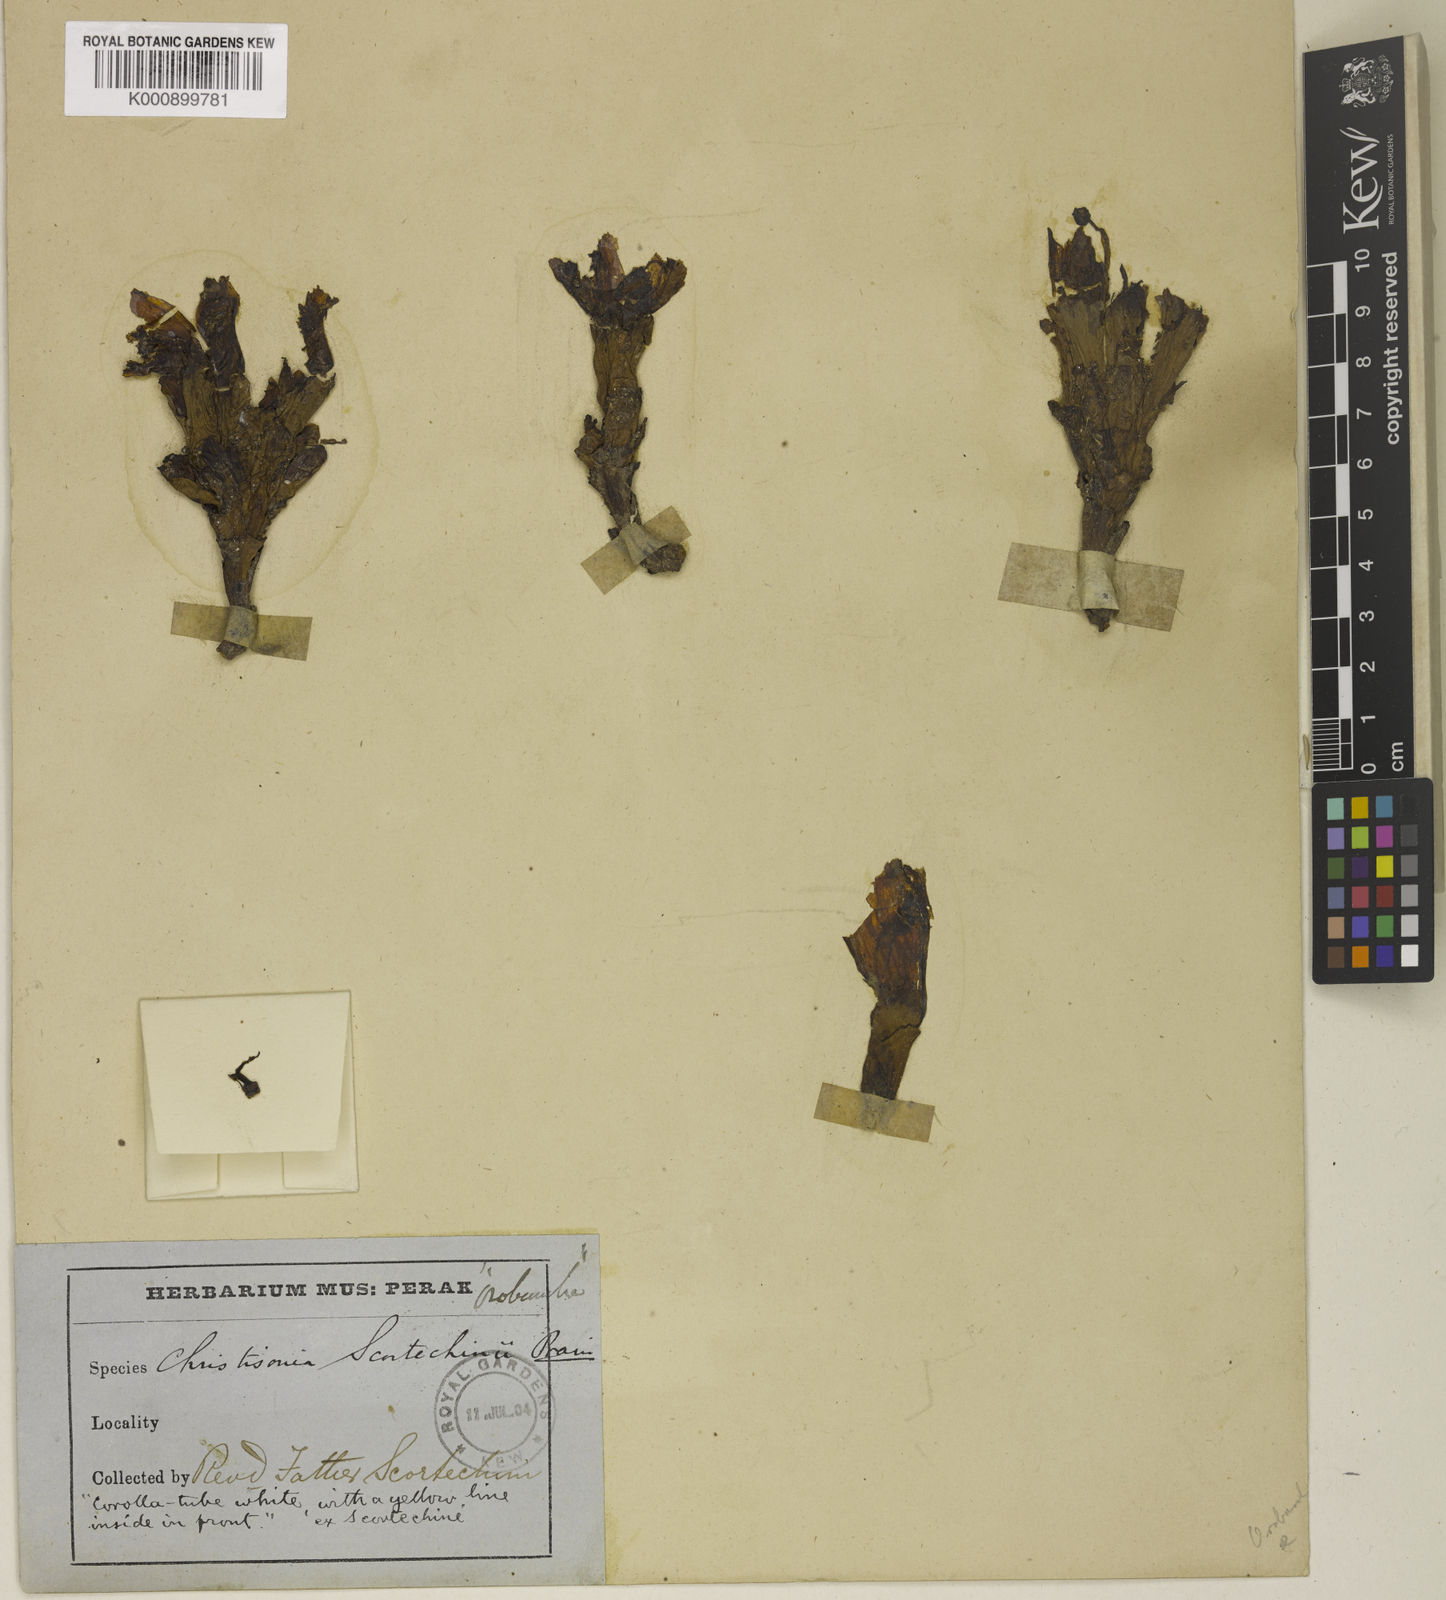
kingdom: Plantae
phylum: Tracheophyta
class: Magnoliopsida
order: Lamiales
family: Orobanchaceae
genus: Christisonia
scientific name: Christisonia scortechinii
